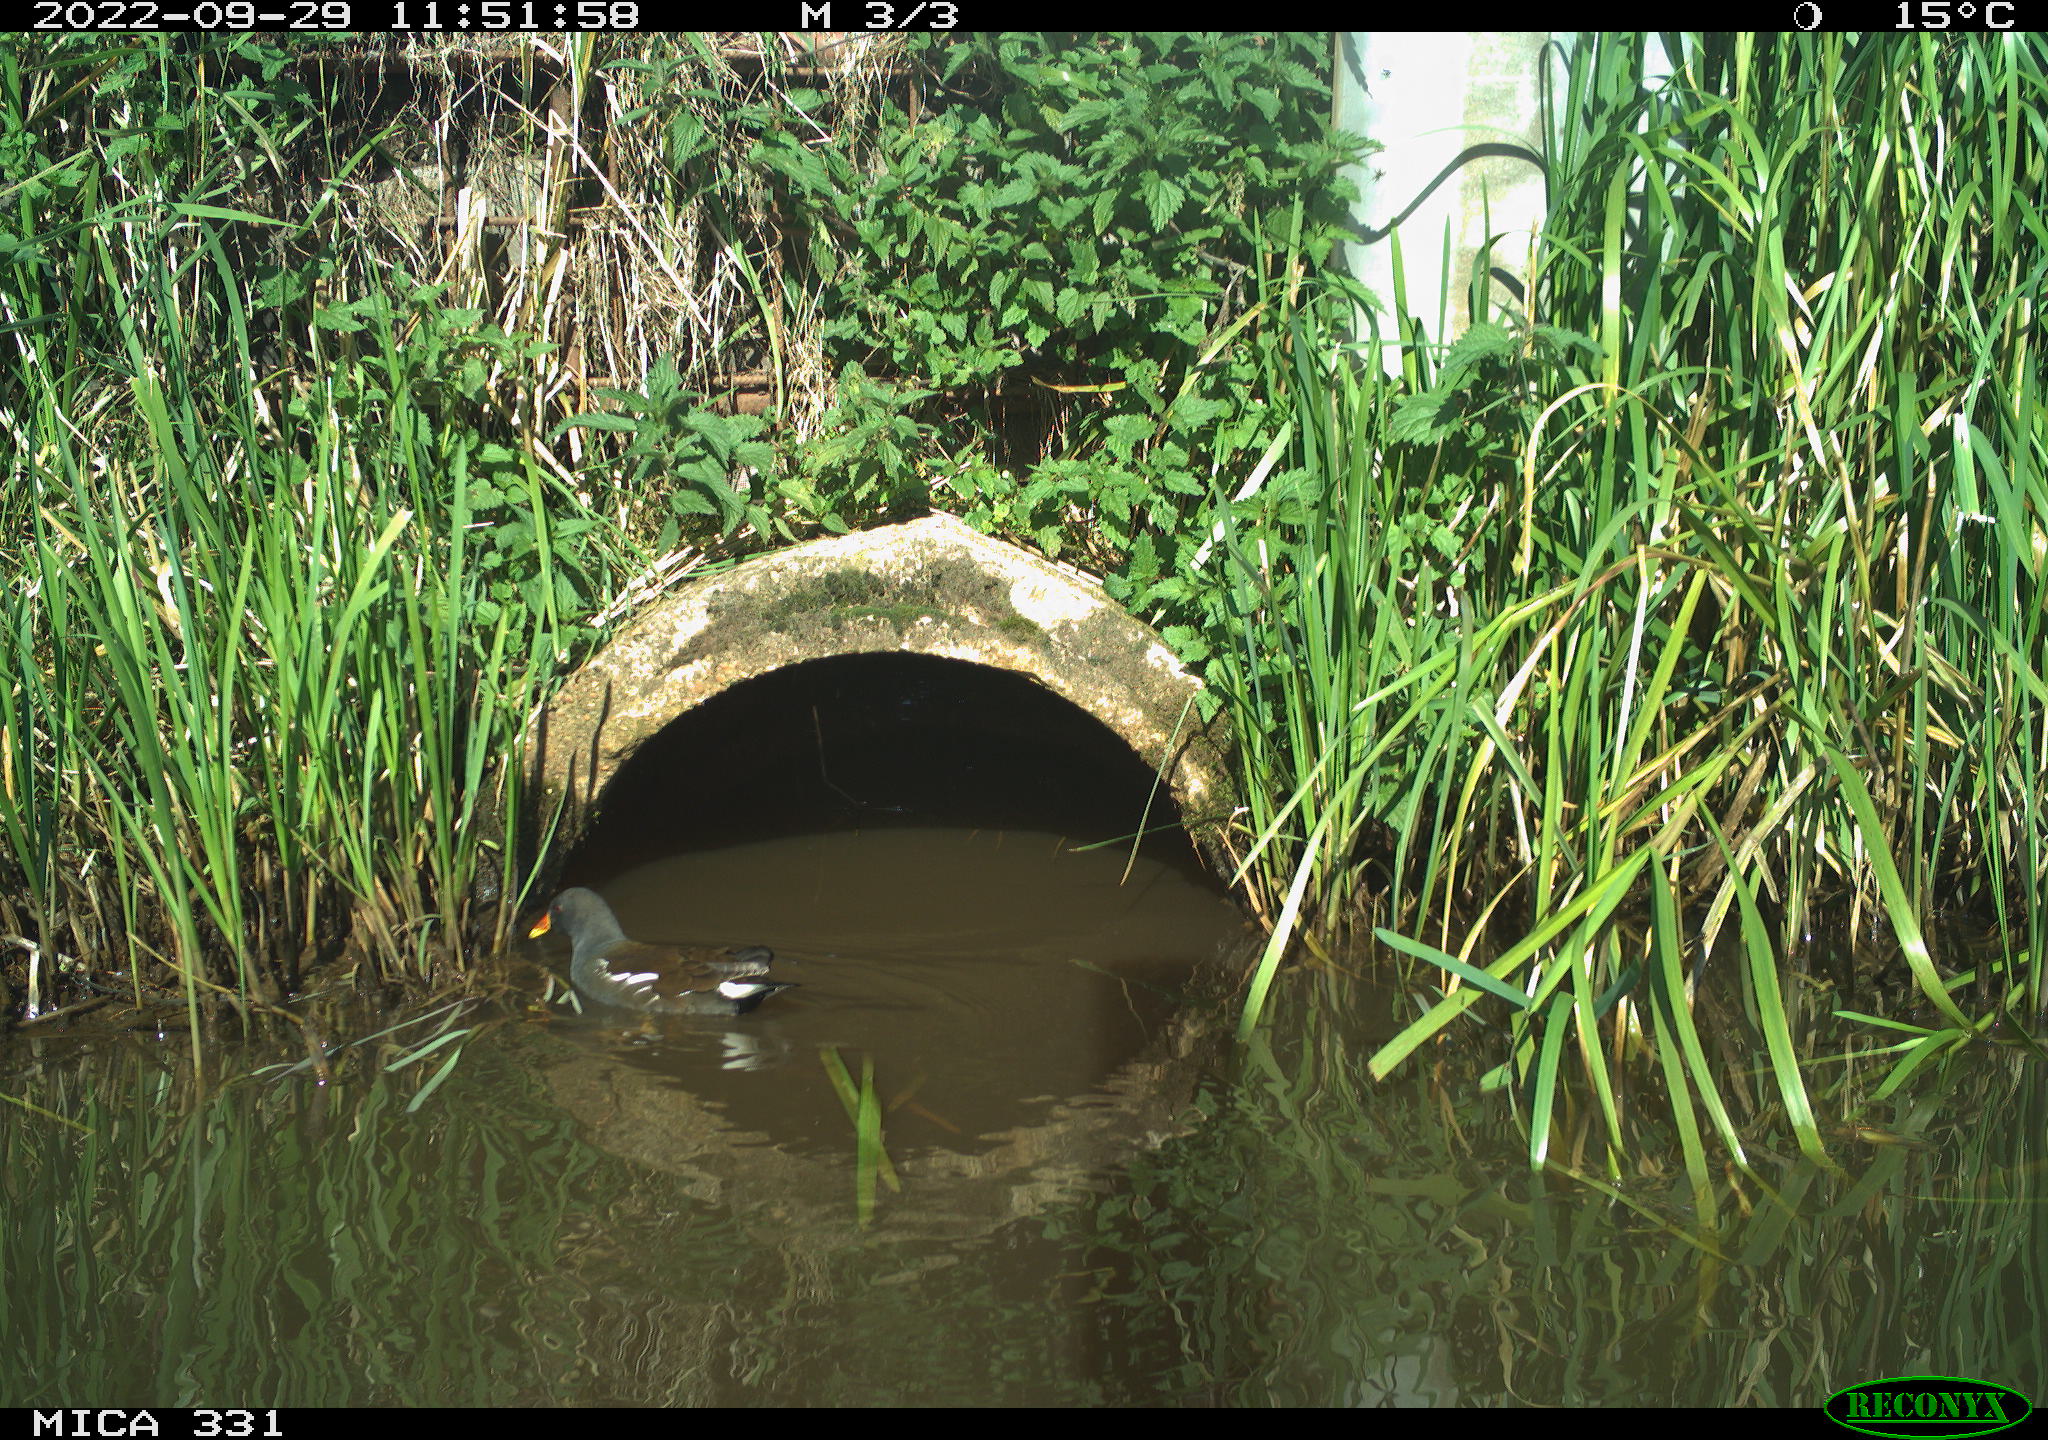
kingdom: Animalia
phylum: Chordata
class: Aves
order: Gruiformes
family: Rallidae
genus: Gallinula
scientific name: Gallinula chloropus
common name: Common moorhen
